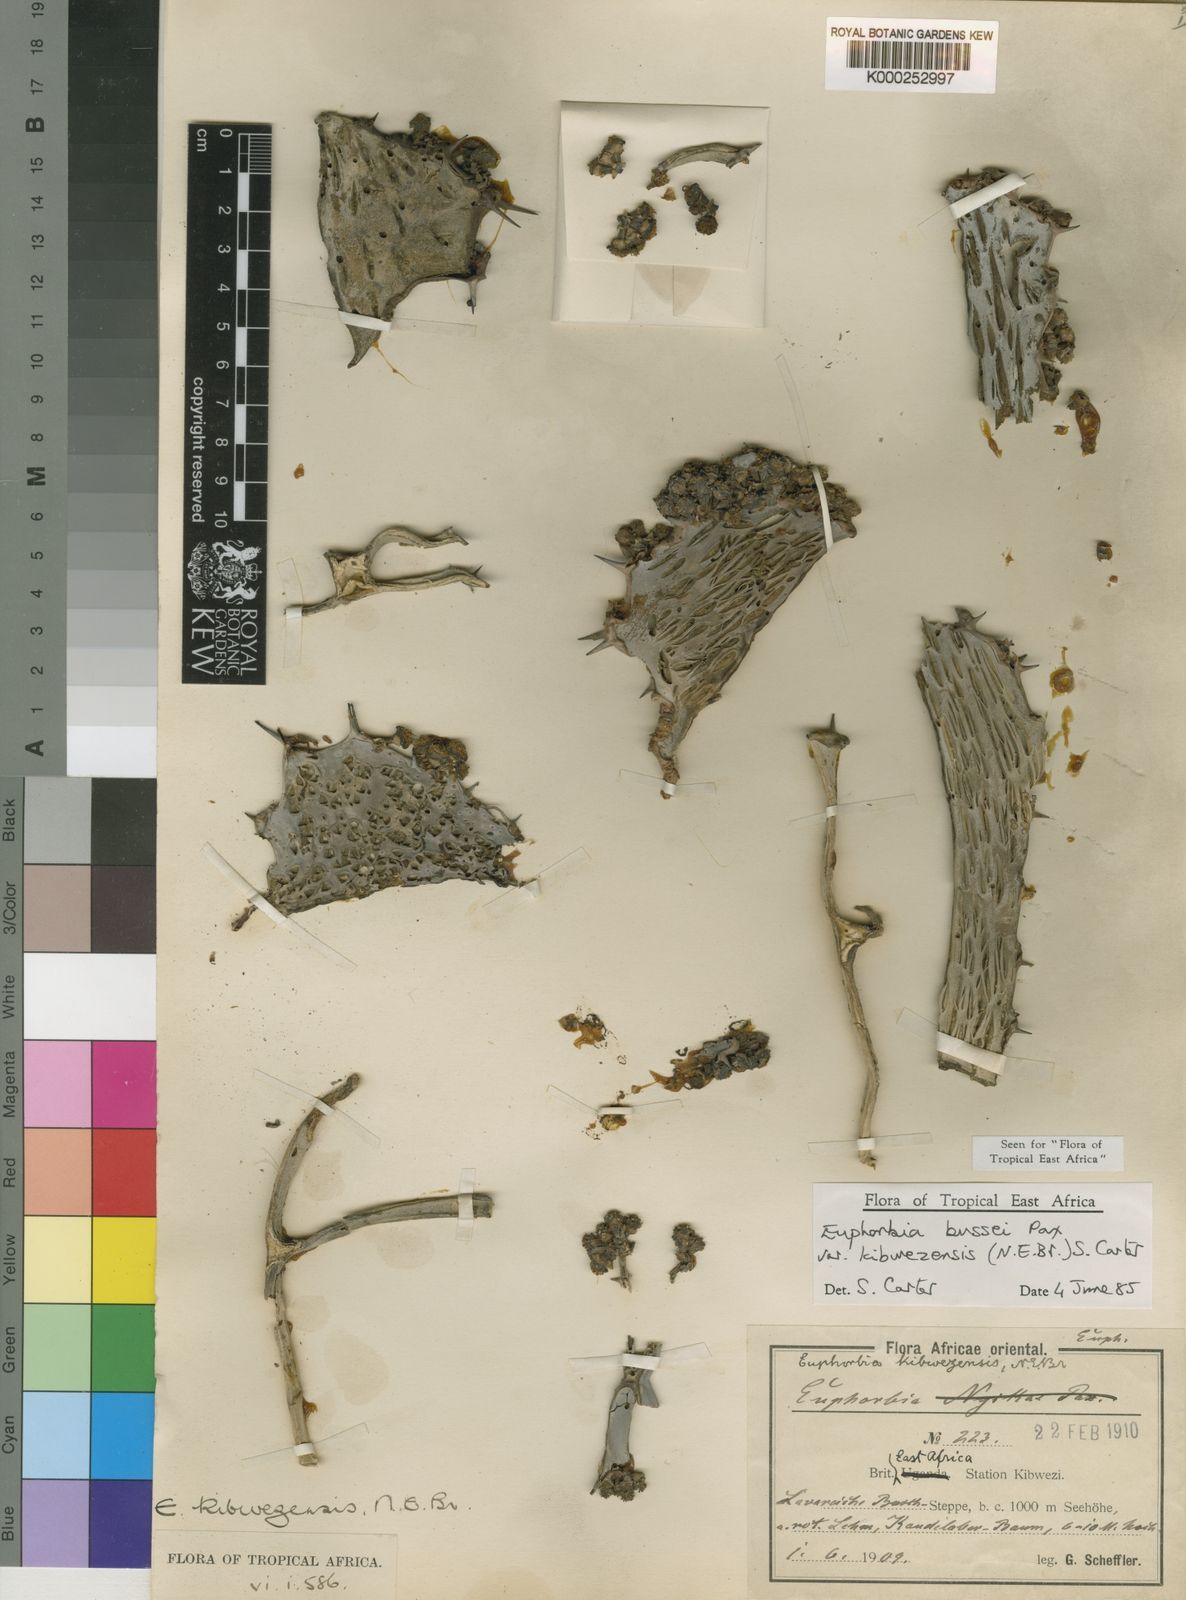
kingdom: Plantae
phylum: Tracheophyta
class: Magnoliopsida
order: Malpighiales
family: Euphorbiaceae
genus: Euphorbia
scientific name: Euphorbia bussei
